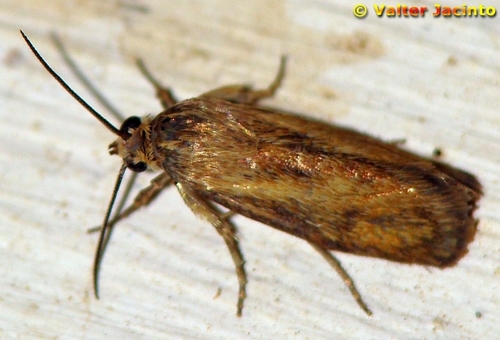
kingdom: Animalia
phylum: Arthropoda
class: Insecta
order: Lepidoptera
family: Brachodidae
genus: Atychia
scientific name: Atychia nanetta
